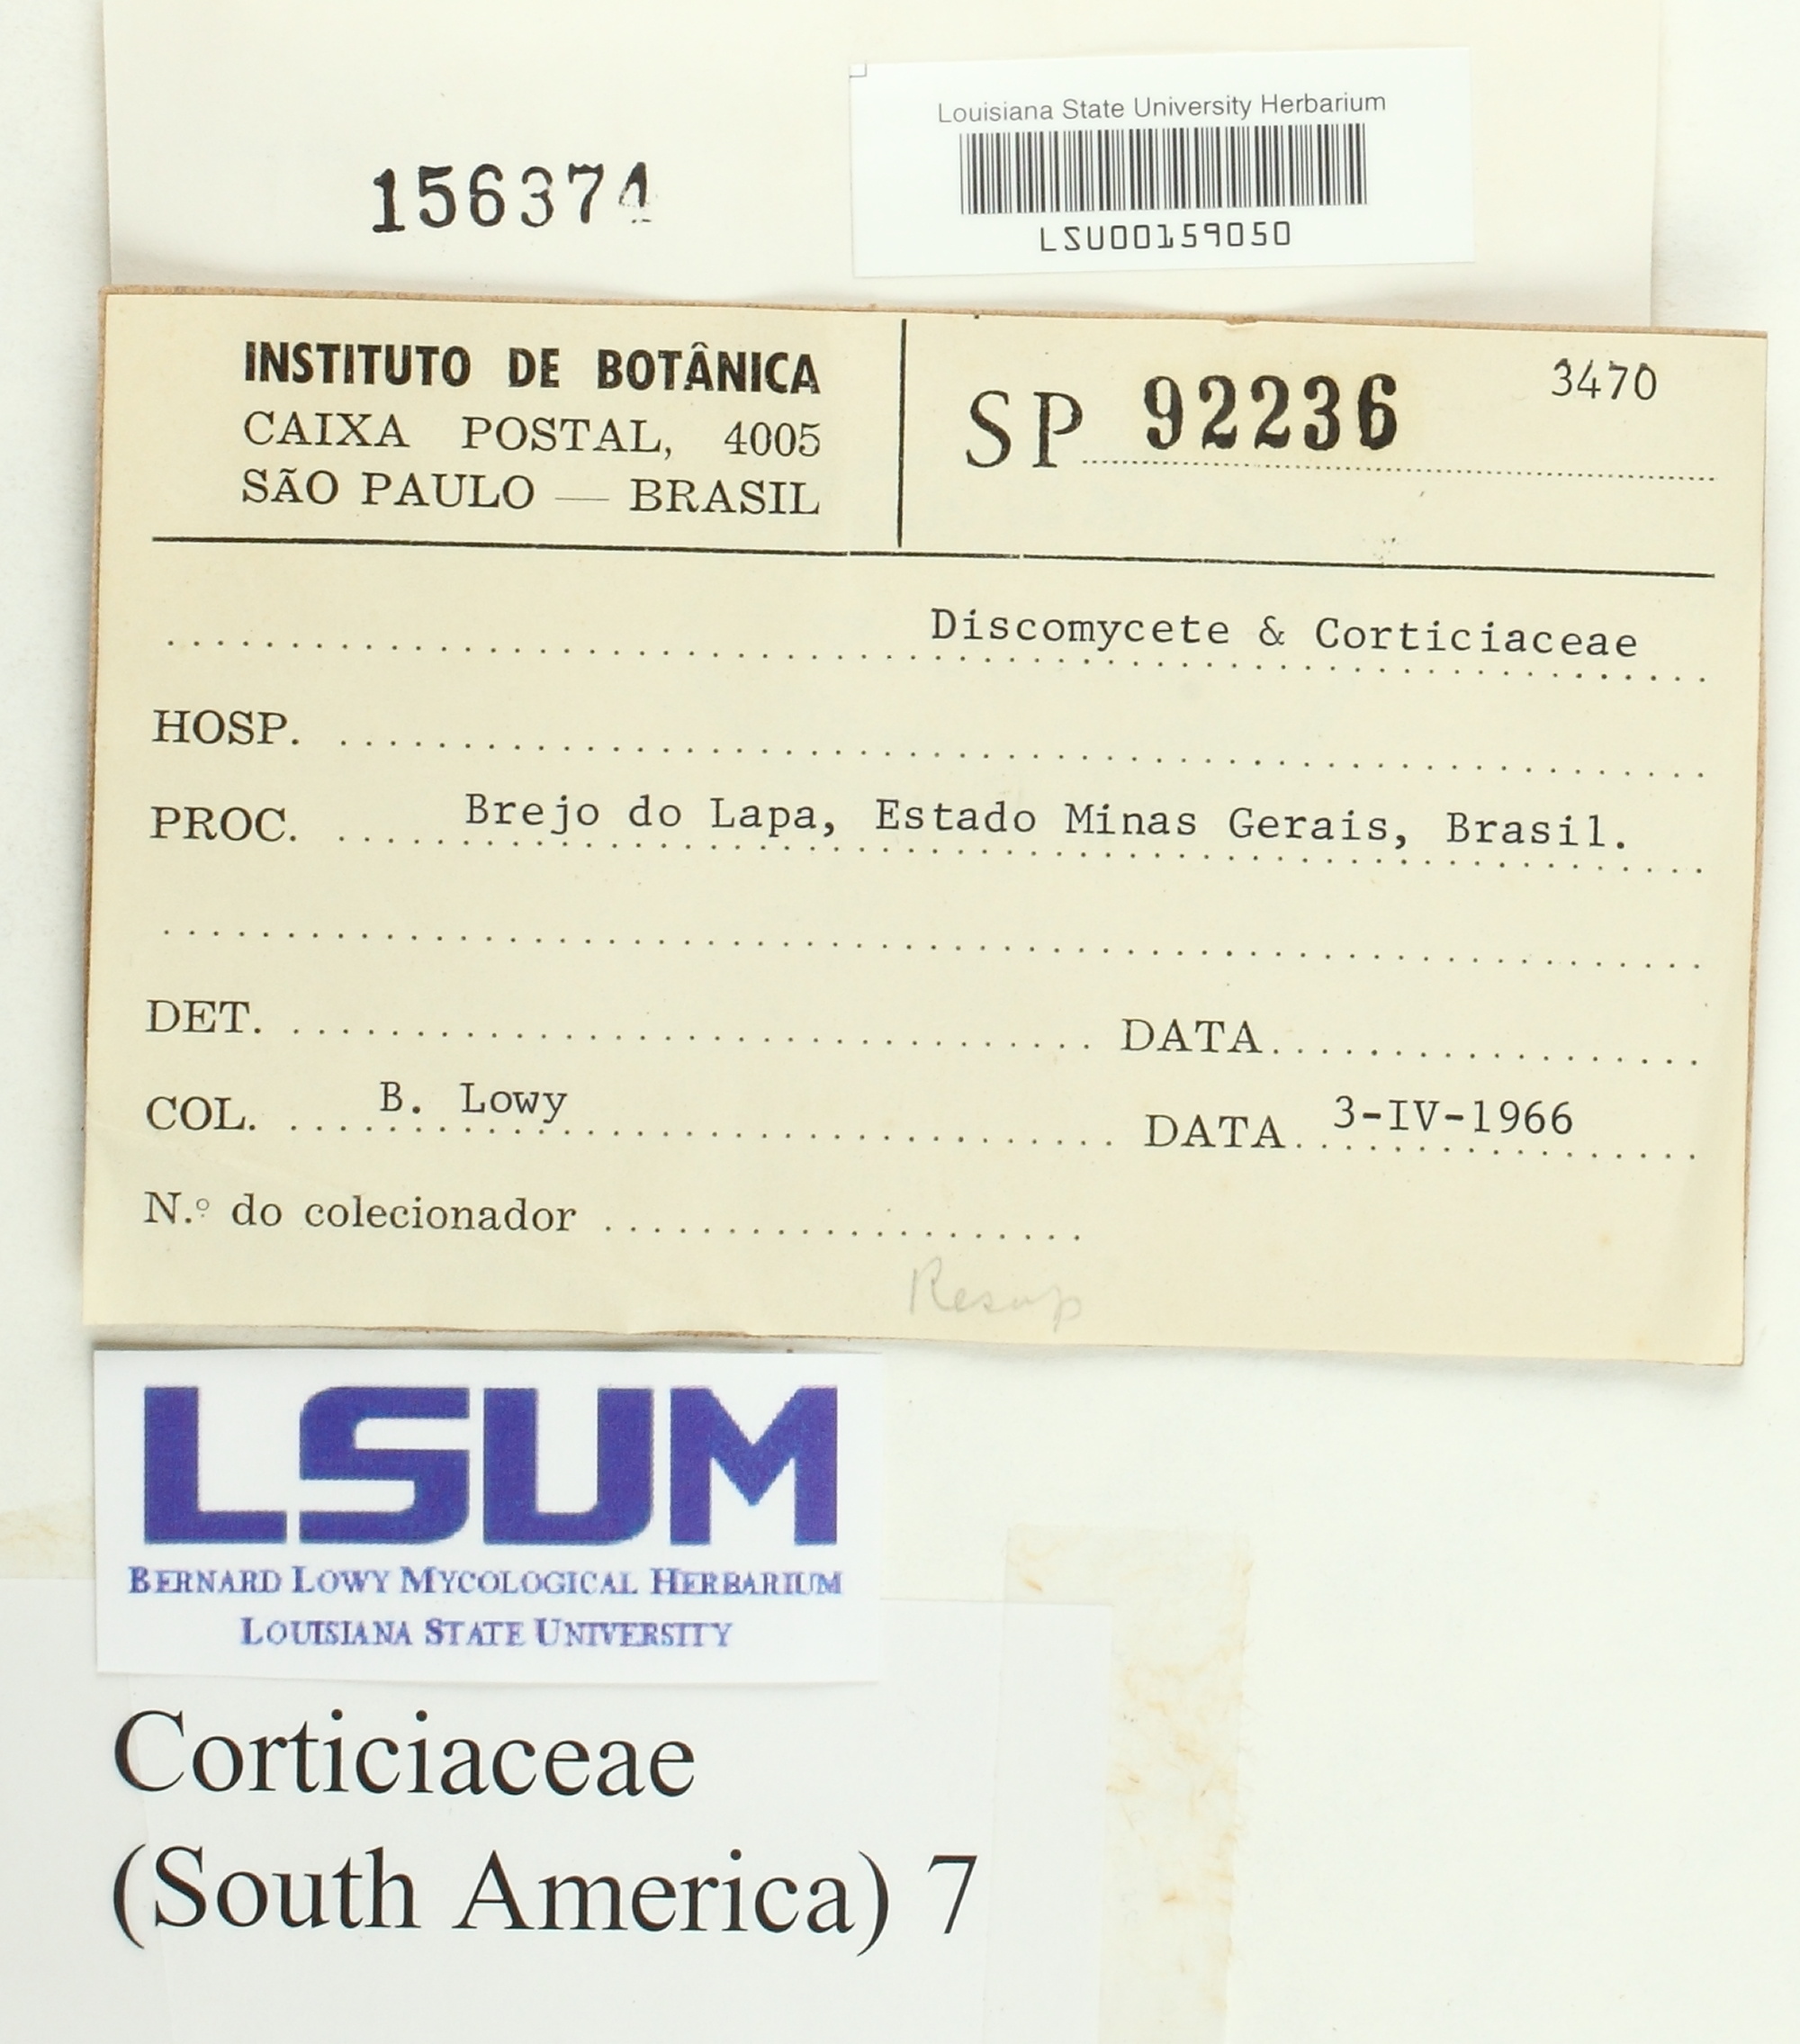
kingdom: Fungi
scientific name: Fungi
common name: Fungi
